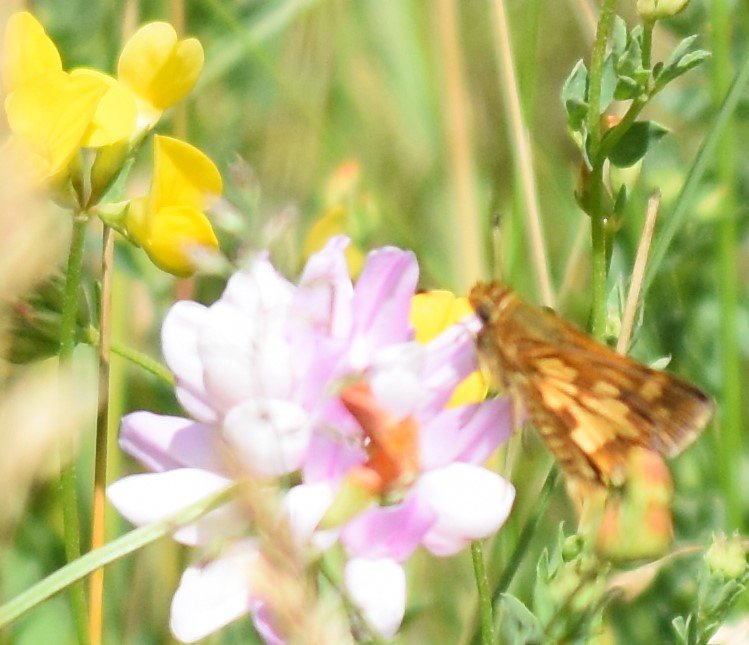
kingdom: Animalia
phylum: Arthropoda
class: Insecta
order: Lepidoptera
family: Hesperiidae
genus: Polites
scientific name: Polites coras
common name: Peck's Skipper
